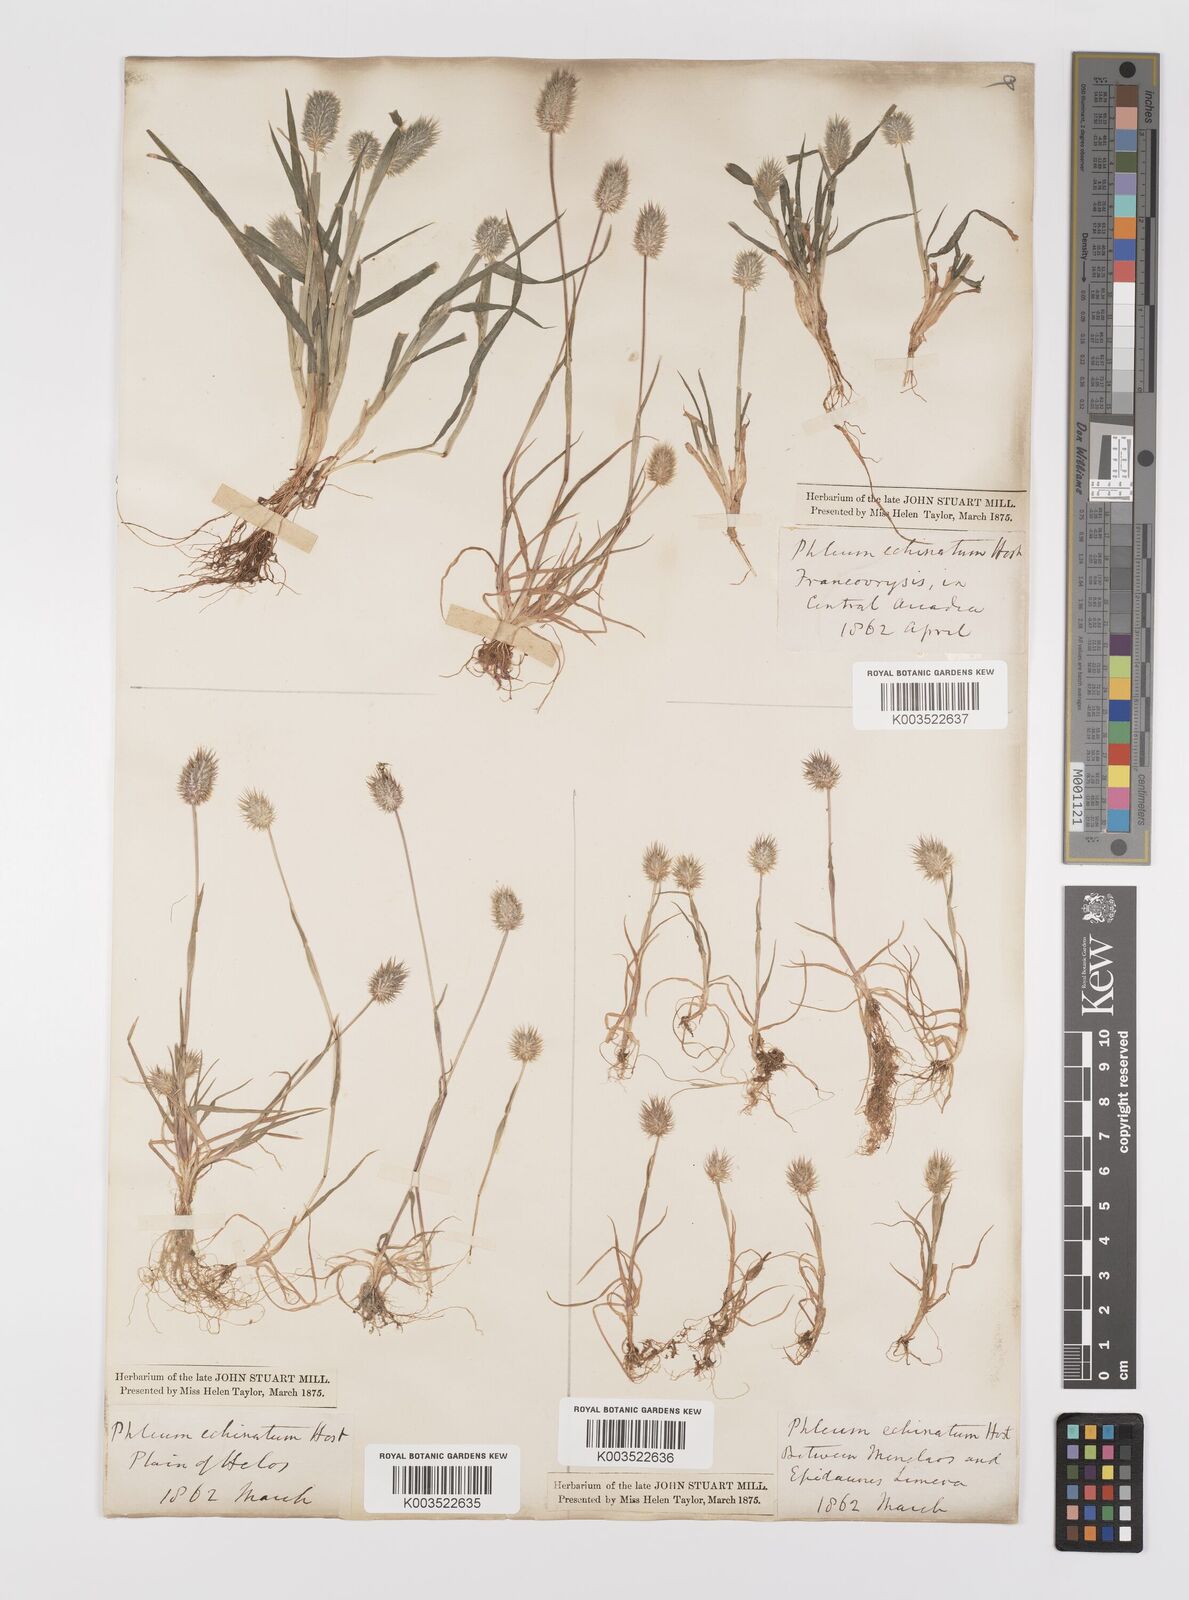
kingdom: Plantae
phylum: Tracheophyta
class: Liliopsida
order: Poales
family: Poaceae
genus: Phleum
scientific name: Phleum echinatum
